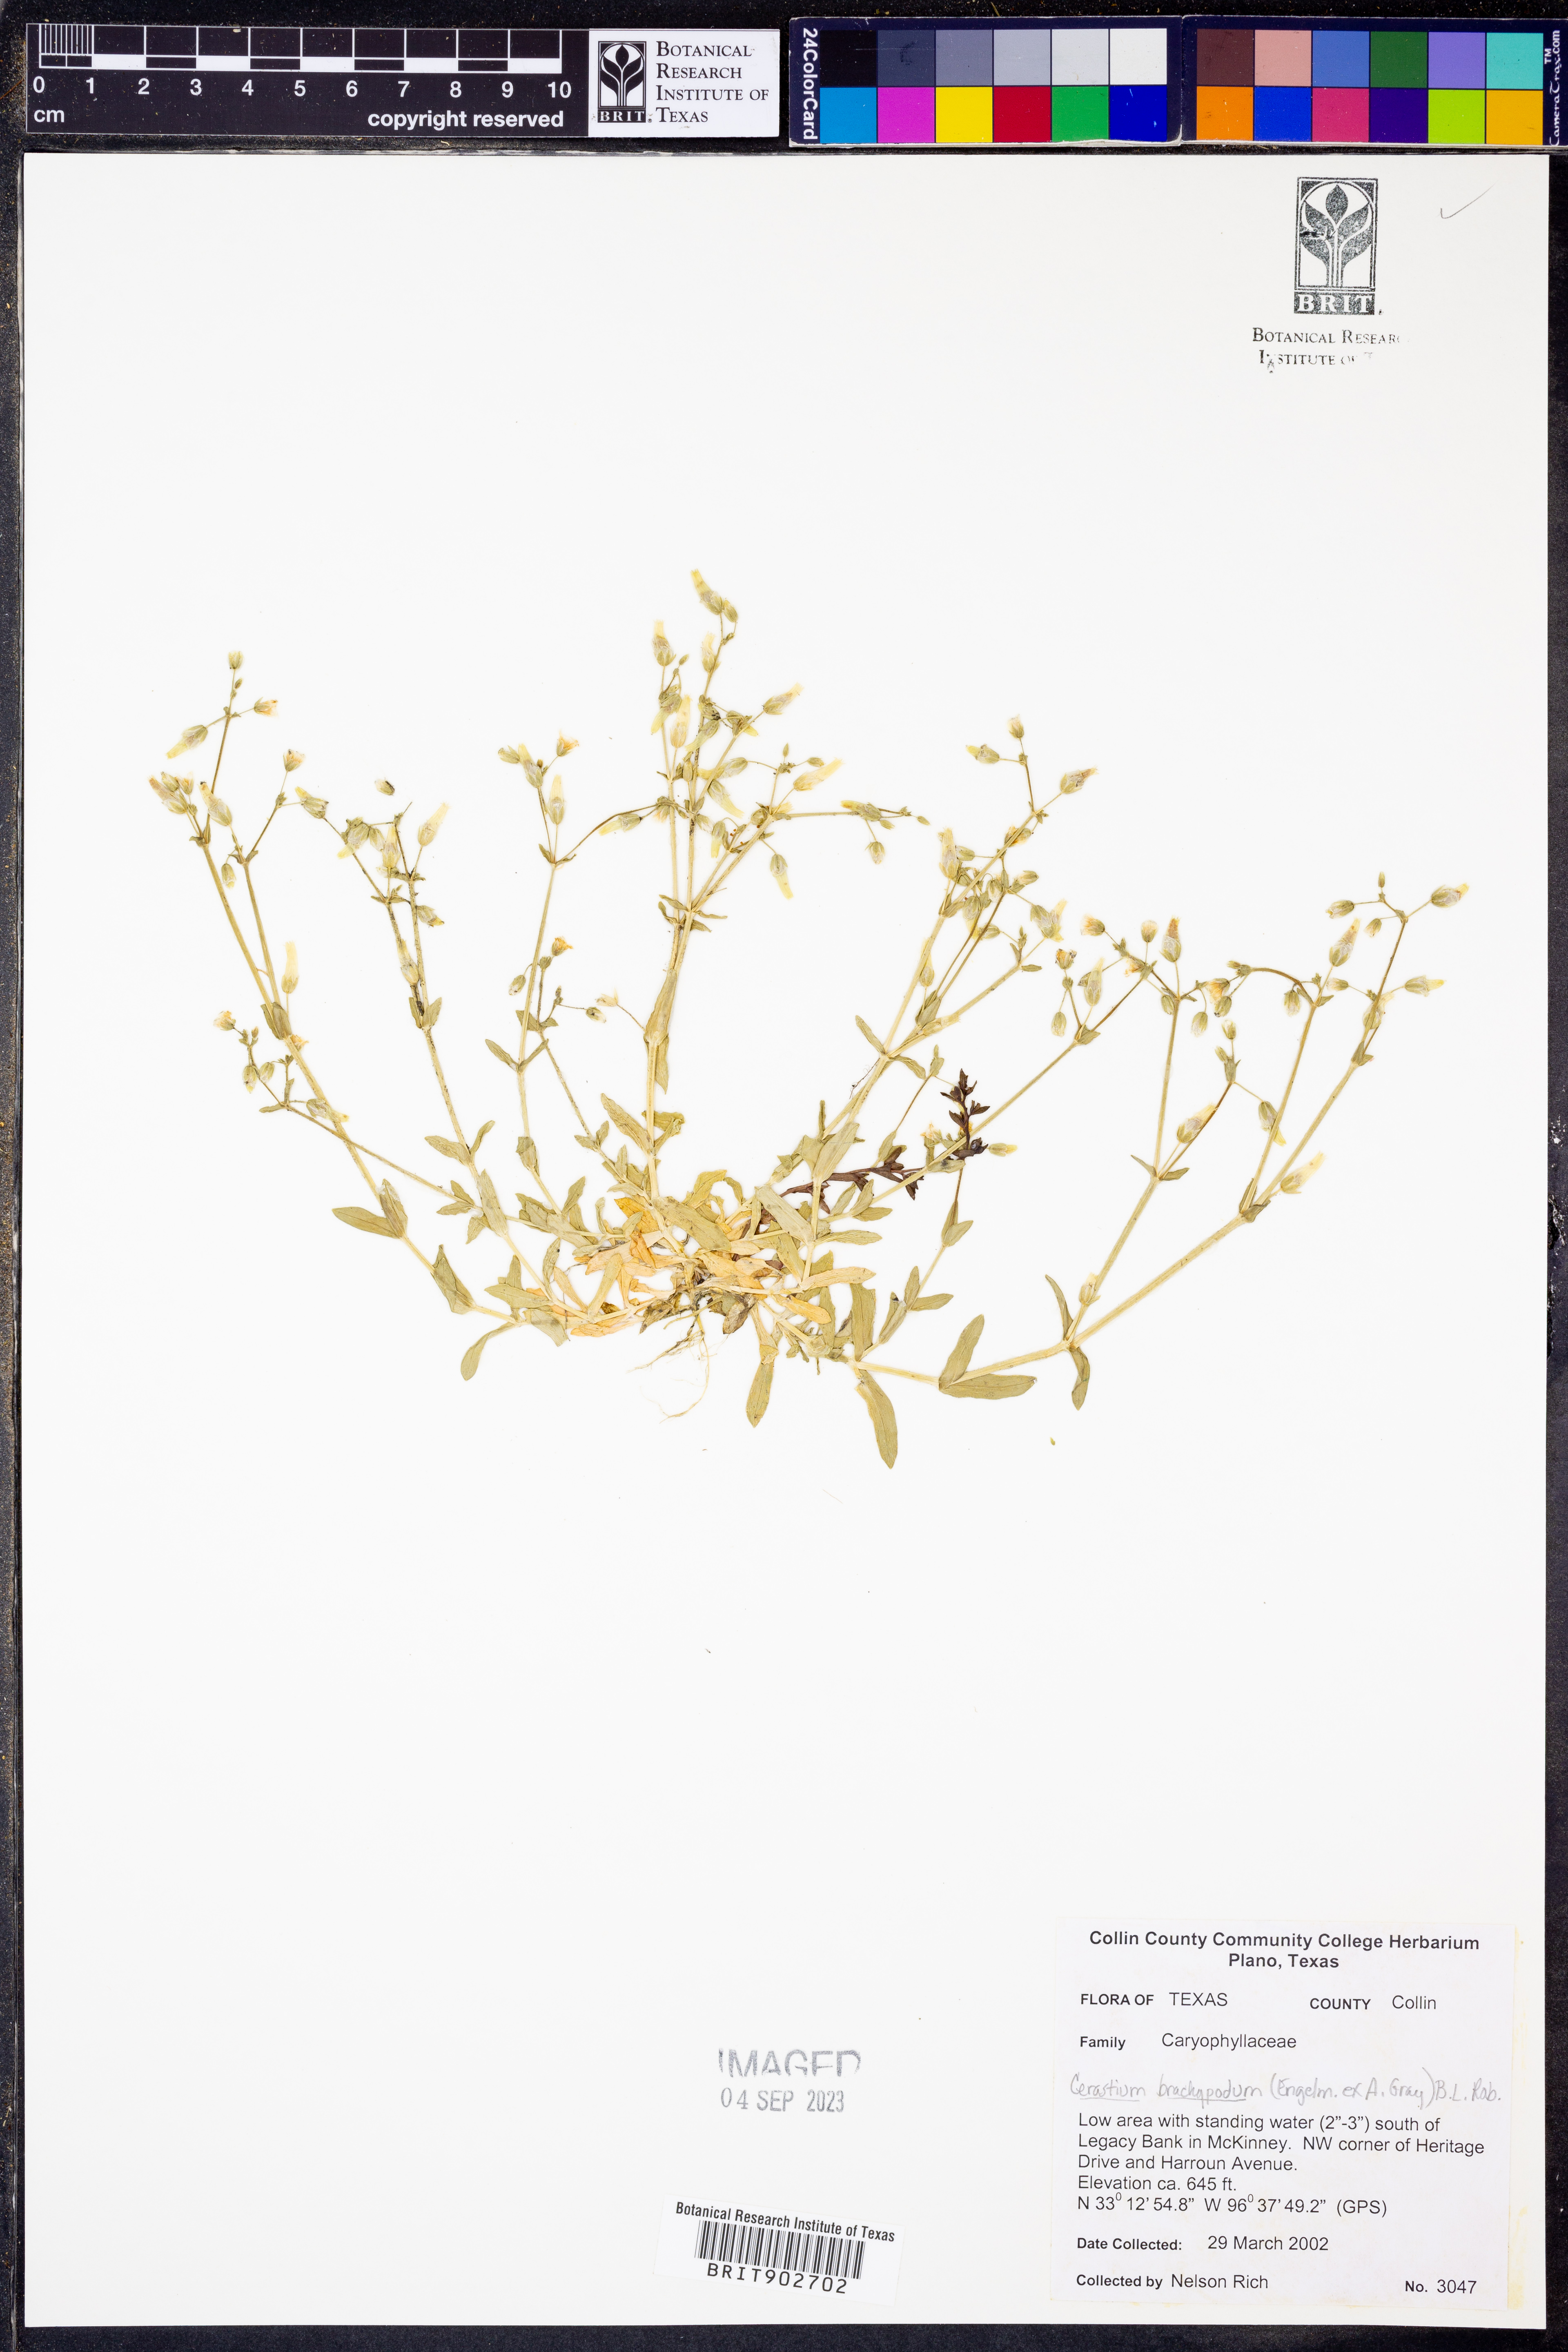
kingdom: Plantae
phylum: Tracheophyta
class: Magnoliopsida
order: Caryophyllales
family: Caryophyllaceae
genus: Cerastium
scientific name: Cerastium brachypodum
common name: Short-pedicelled nodding chickweed
